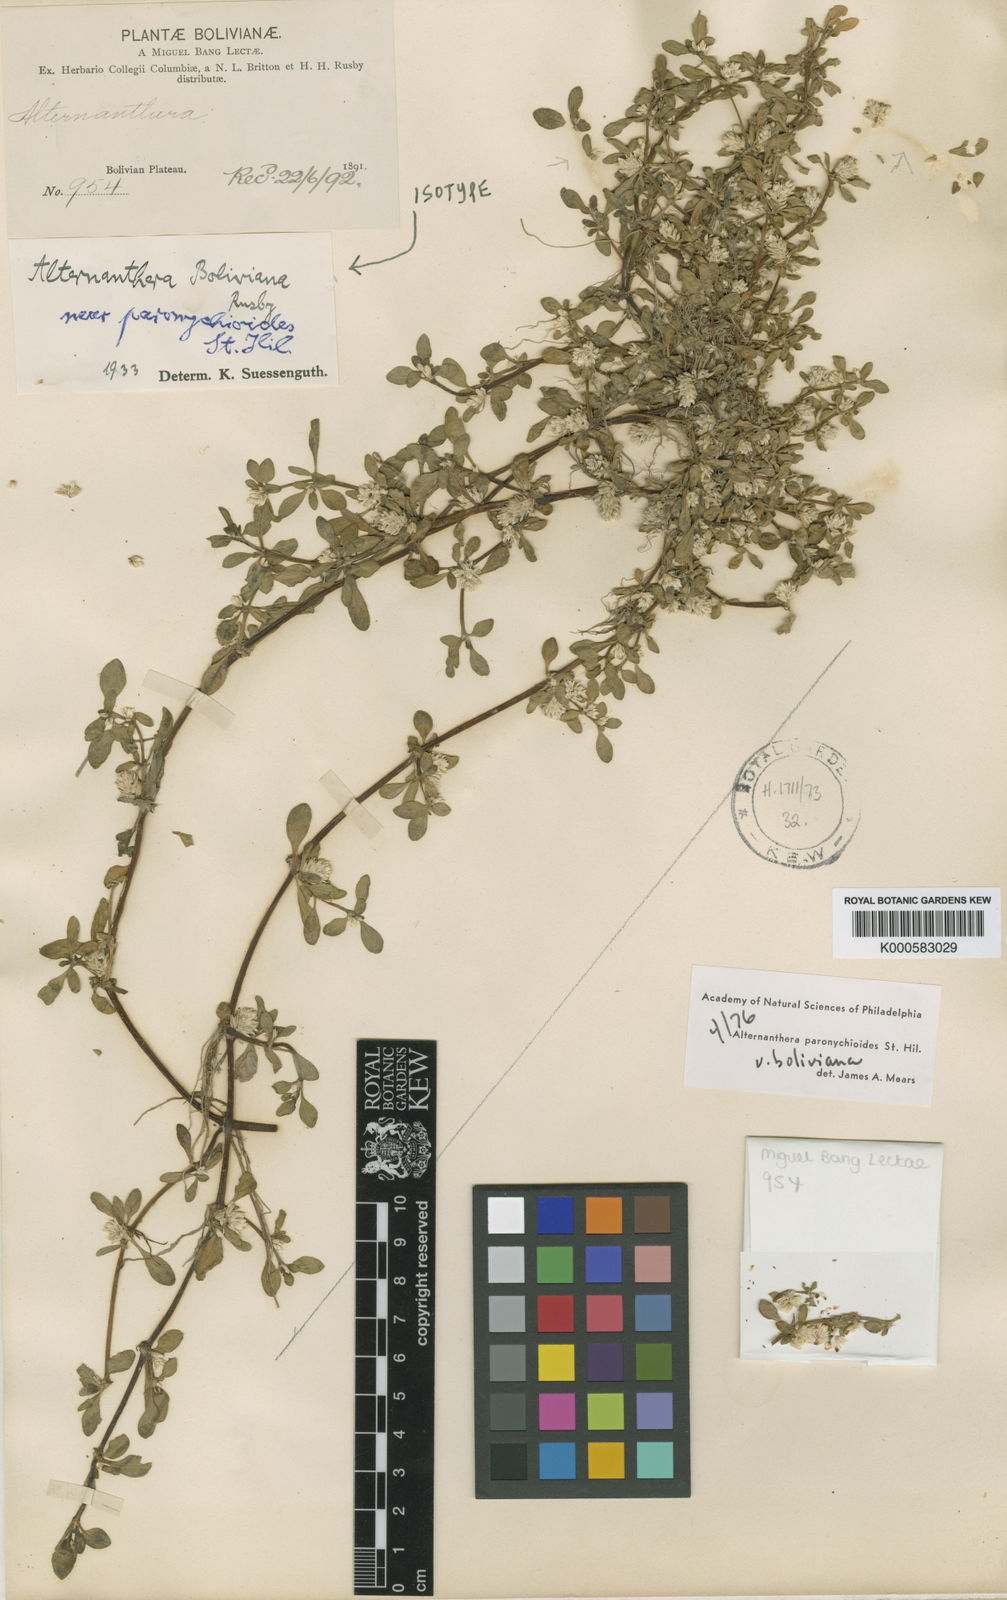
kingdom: Plantae
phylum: Tracheophyta
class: Magnoliopsida
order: Caryophyllales
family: Amaranthaceae
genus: Alternanthera
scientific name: Alternanthera paronychioides
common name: Smooth joyweed
